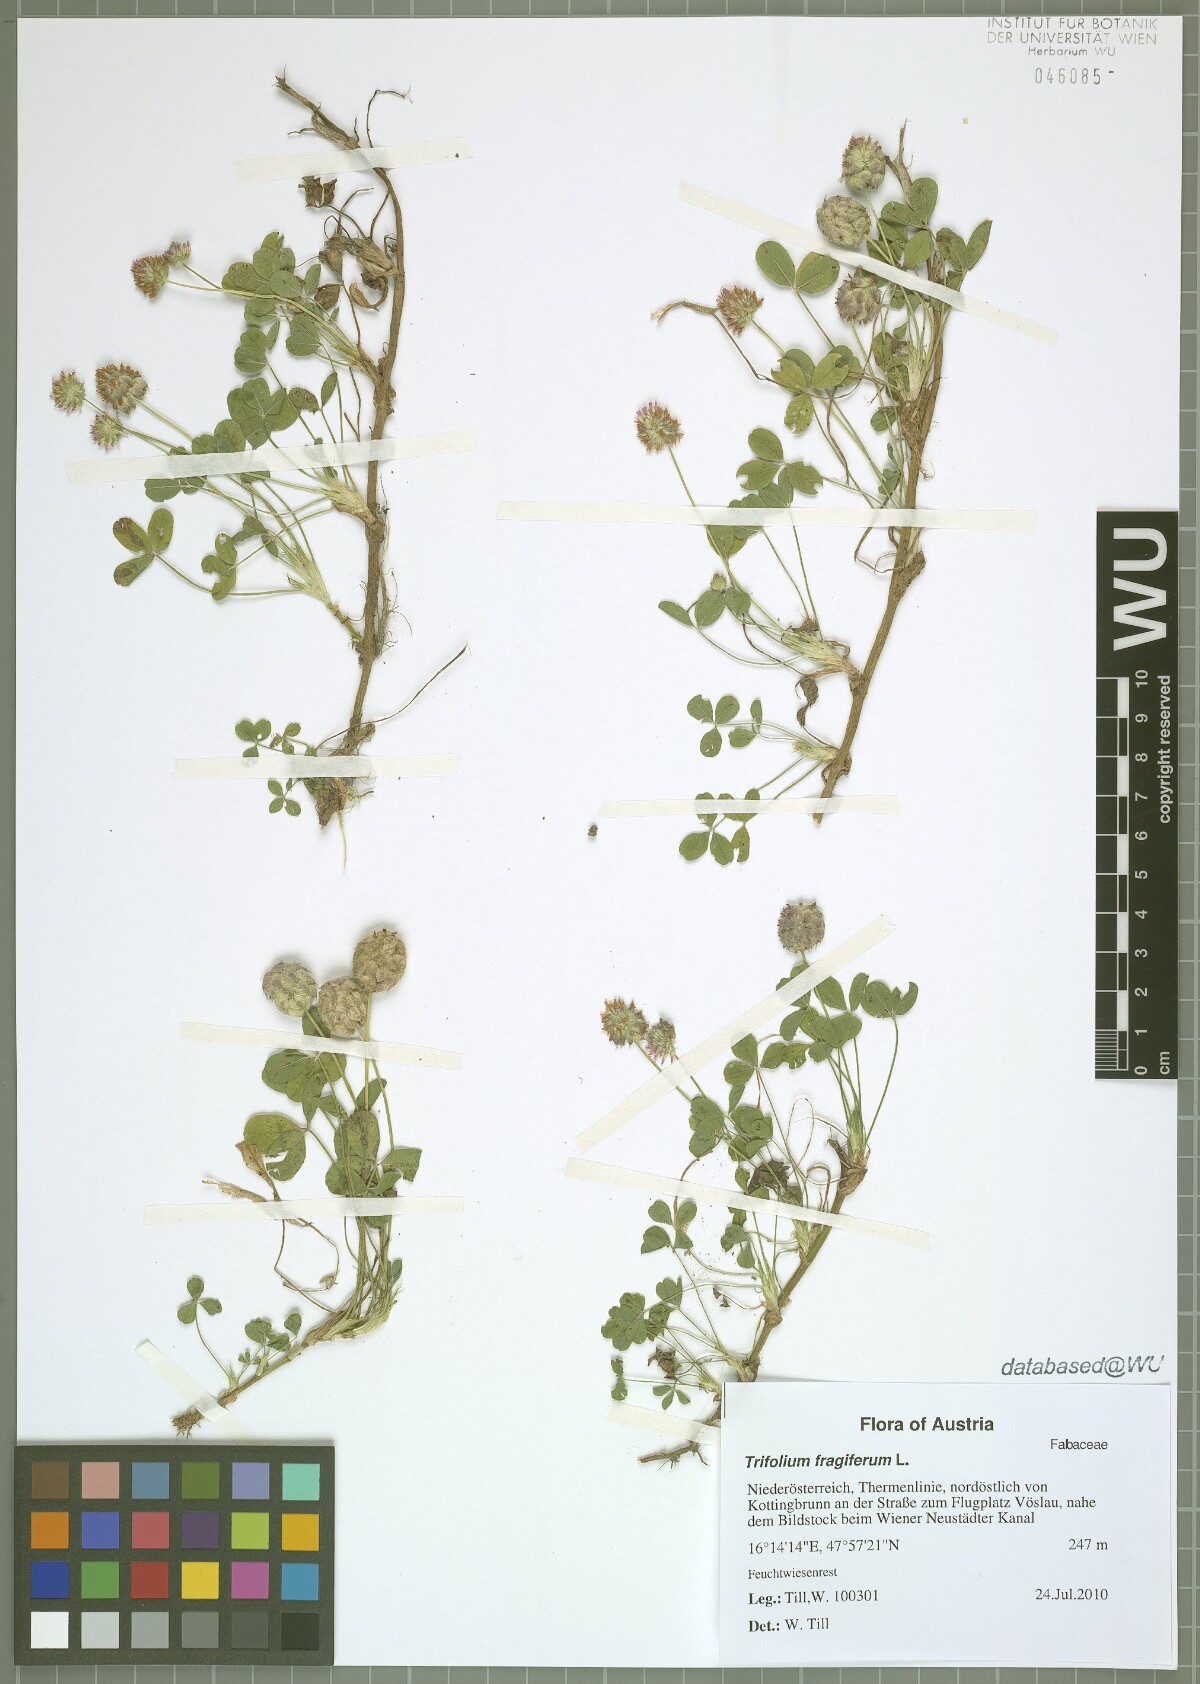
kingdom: Plantae
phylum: Tracheophyta
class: Magnoliopsida
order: Fabales
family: Fabaceae
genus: Trifolium
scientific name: Trifolium fragiferum
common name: Strawberry clover
